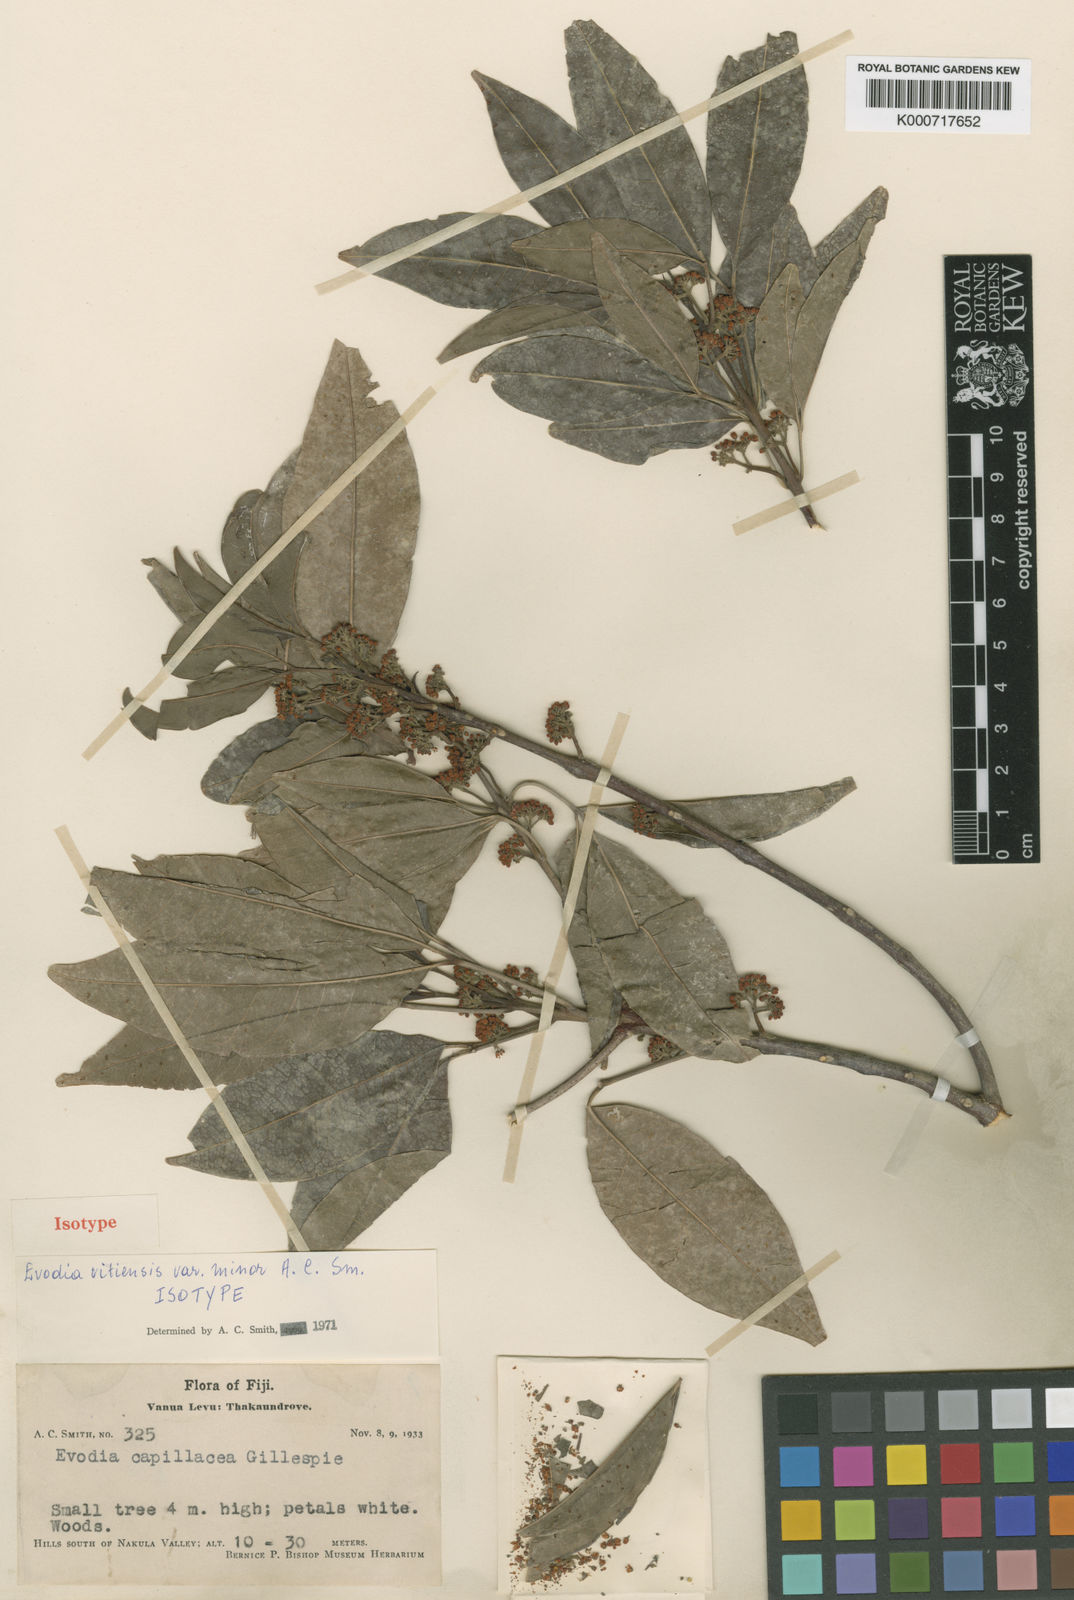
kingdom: Plantae
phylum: Tracheophyta
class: Magnoliopsida
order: Sapindales
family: Rutaceae
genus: Melicope
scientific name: Melicope cucullata
